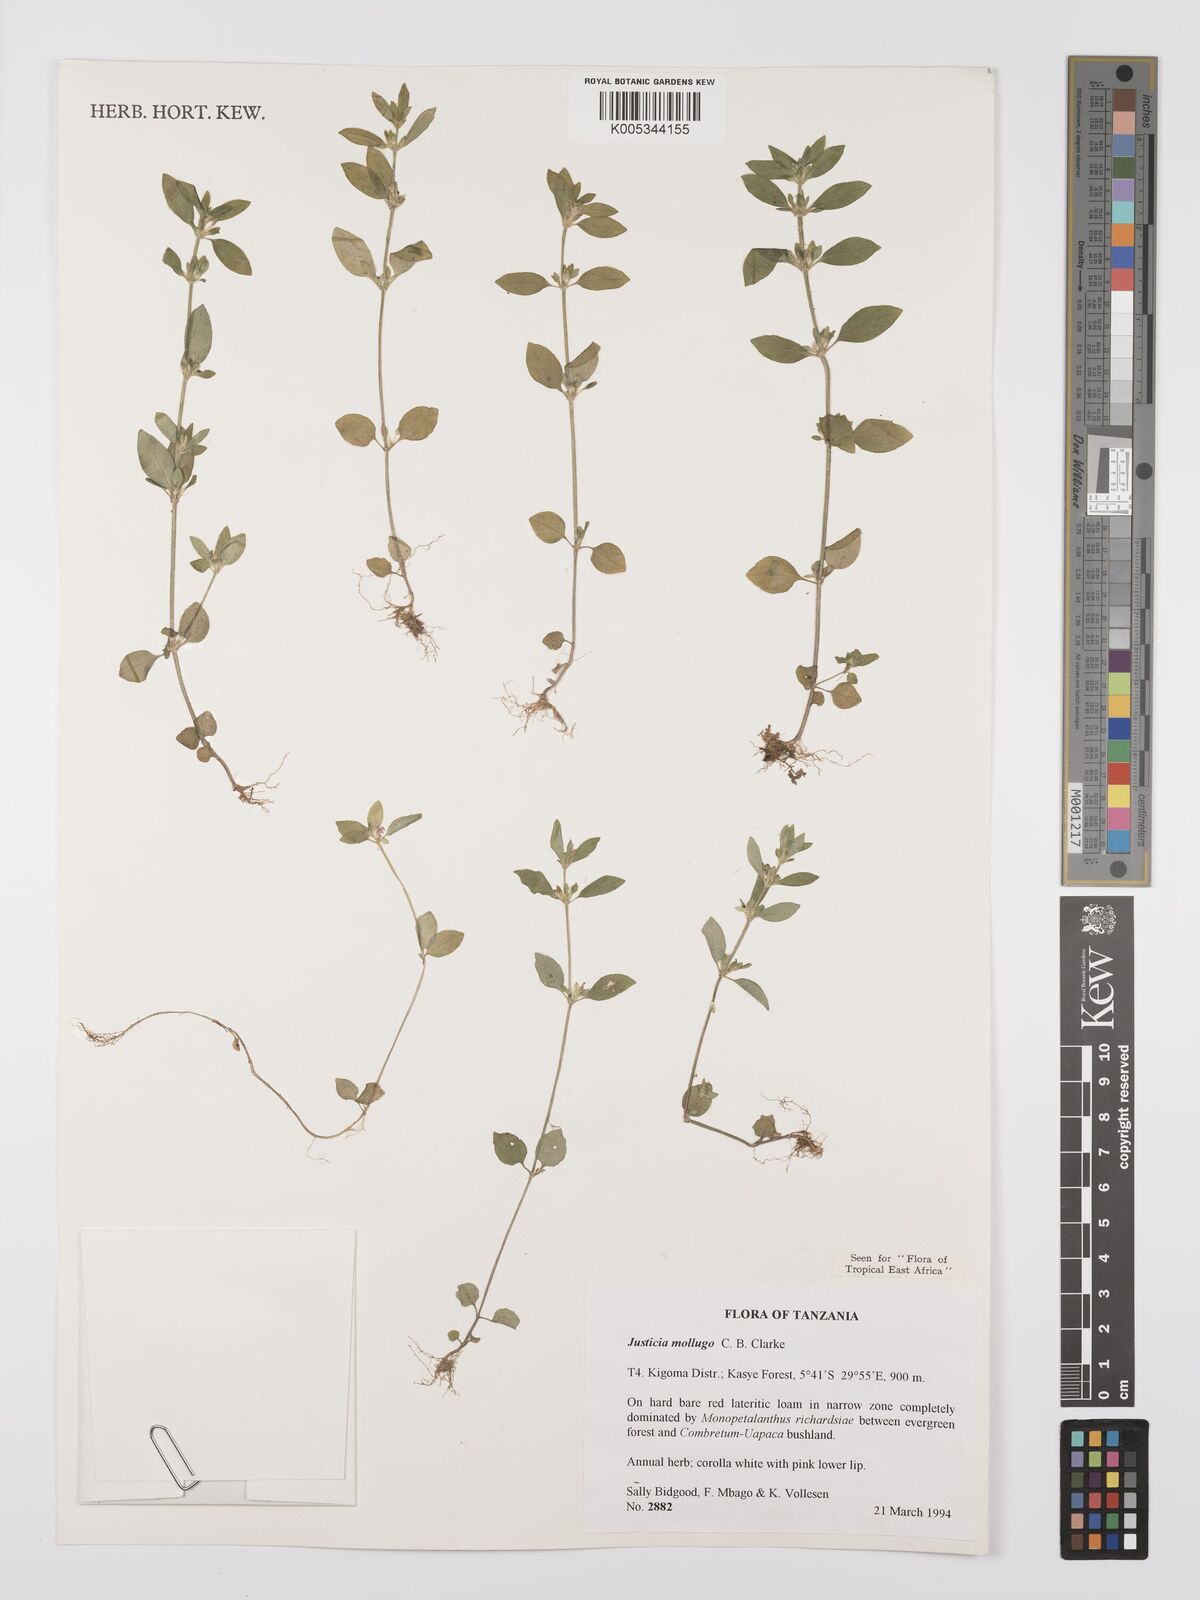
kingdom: Plantae
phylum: Tracheophyta
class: Magnoliopsida
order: Lamiales
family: Acanthaceae
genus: Justicia
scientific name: Justicia mollugo
